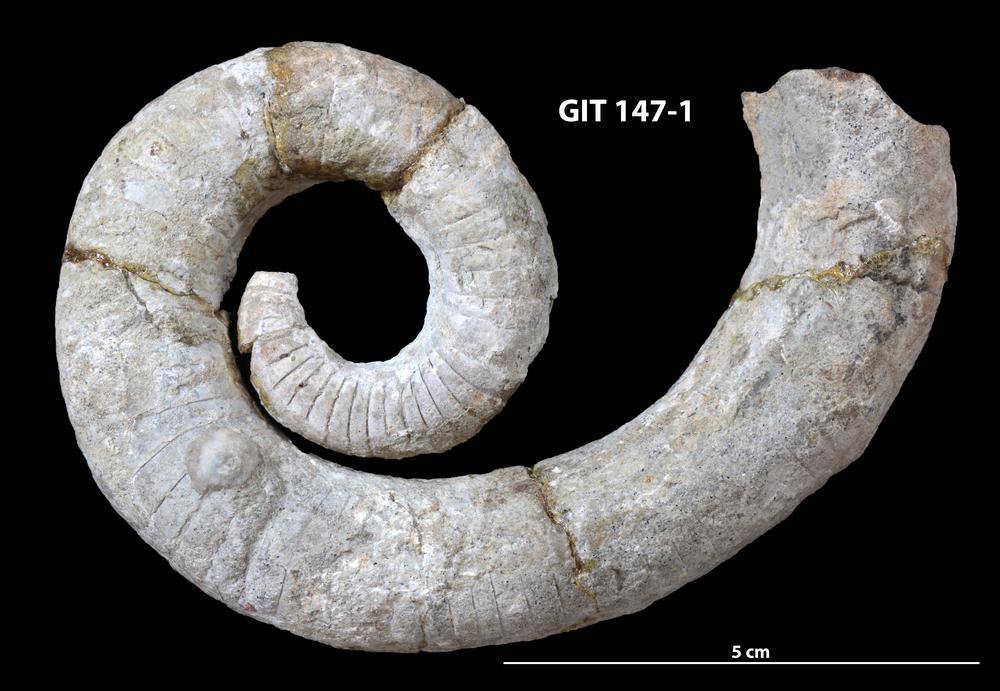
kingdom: Animalia
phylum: Mollusca
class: Cephalopoda
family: Tarphyceratidae
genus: Bentoceras
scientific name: Bentoceras rubeli
